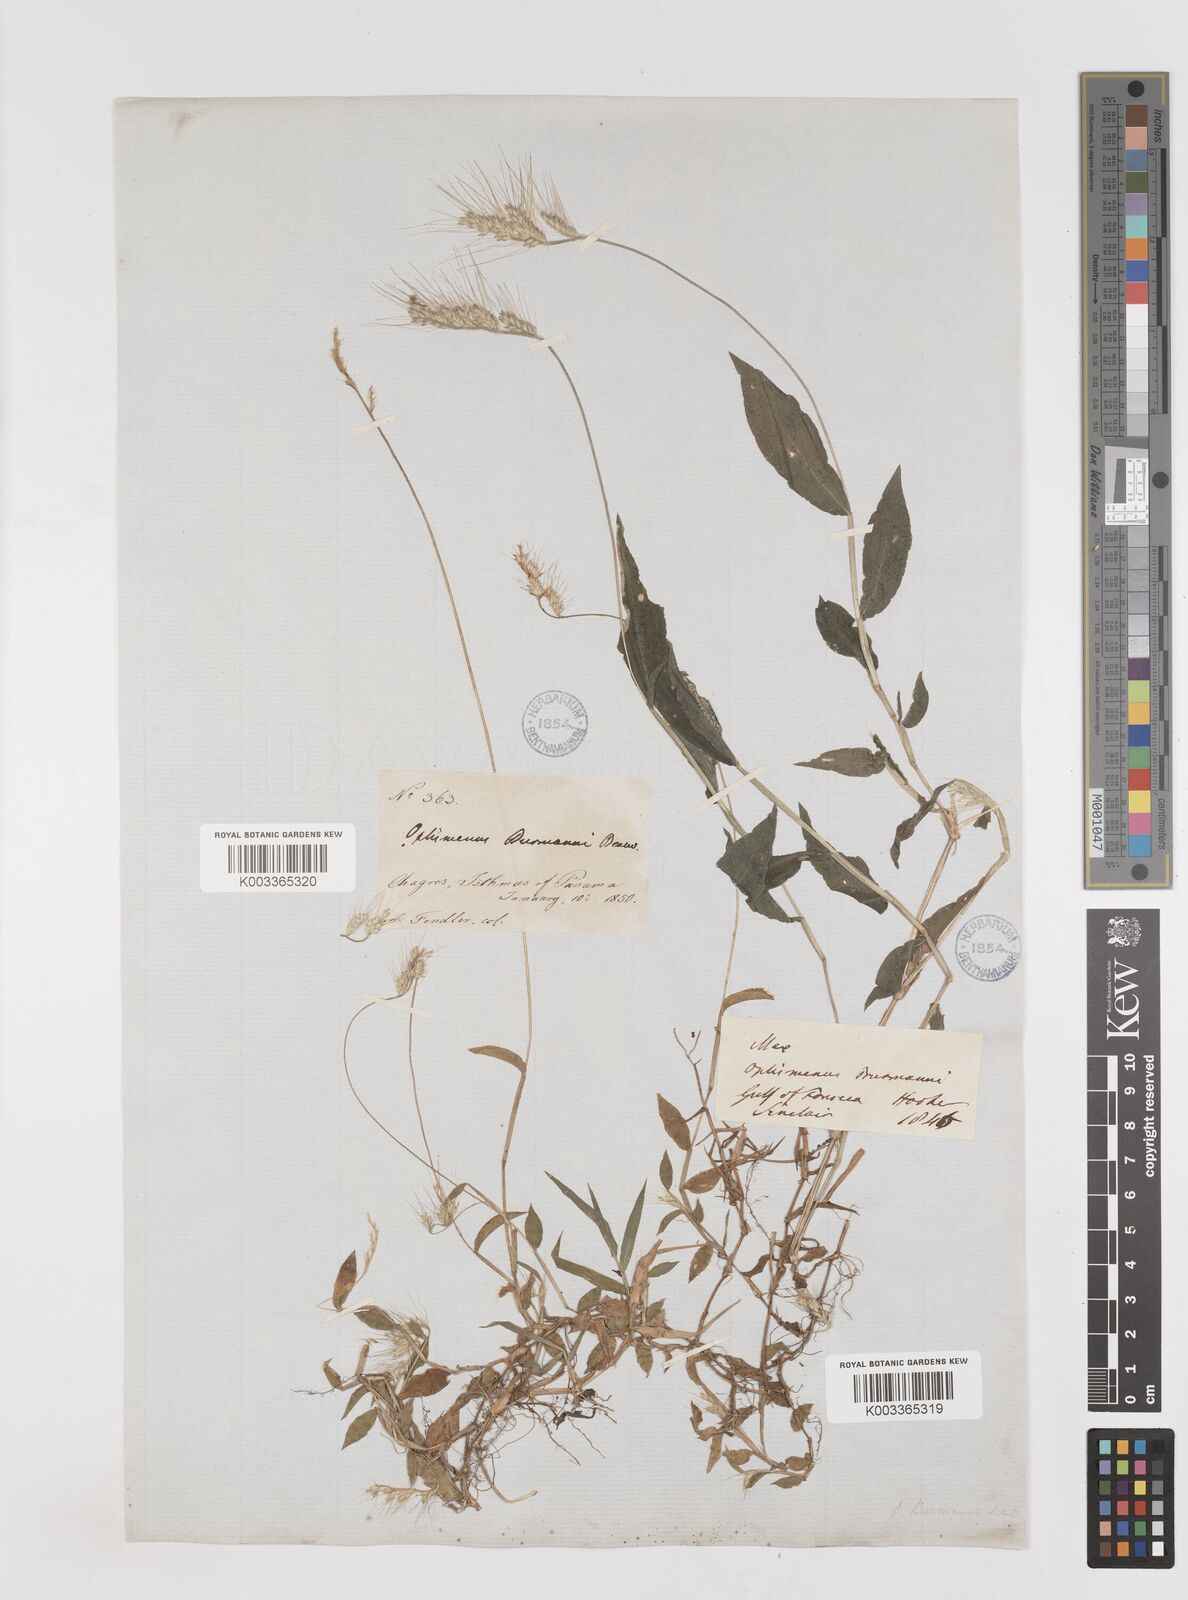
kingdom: Plantae
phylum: Tracheophyta
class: Liliopsida
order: Poales
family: Poaceae
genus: Oplismenus
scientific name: Oplismenus burmanni
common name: Burmann's basketgrass
